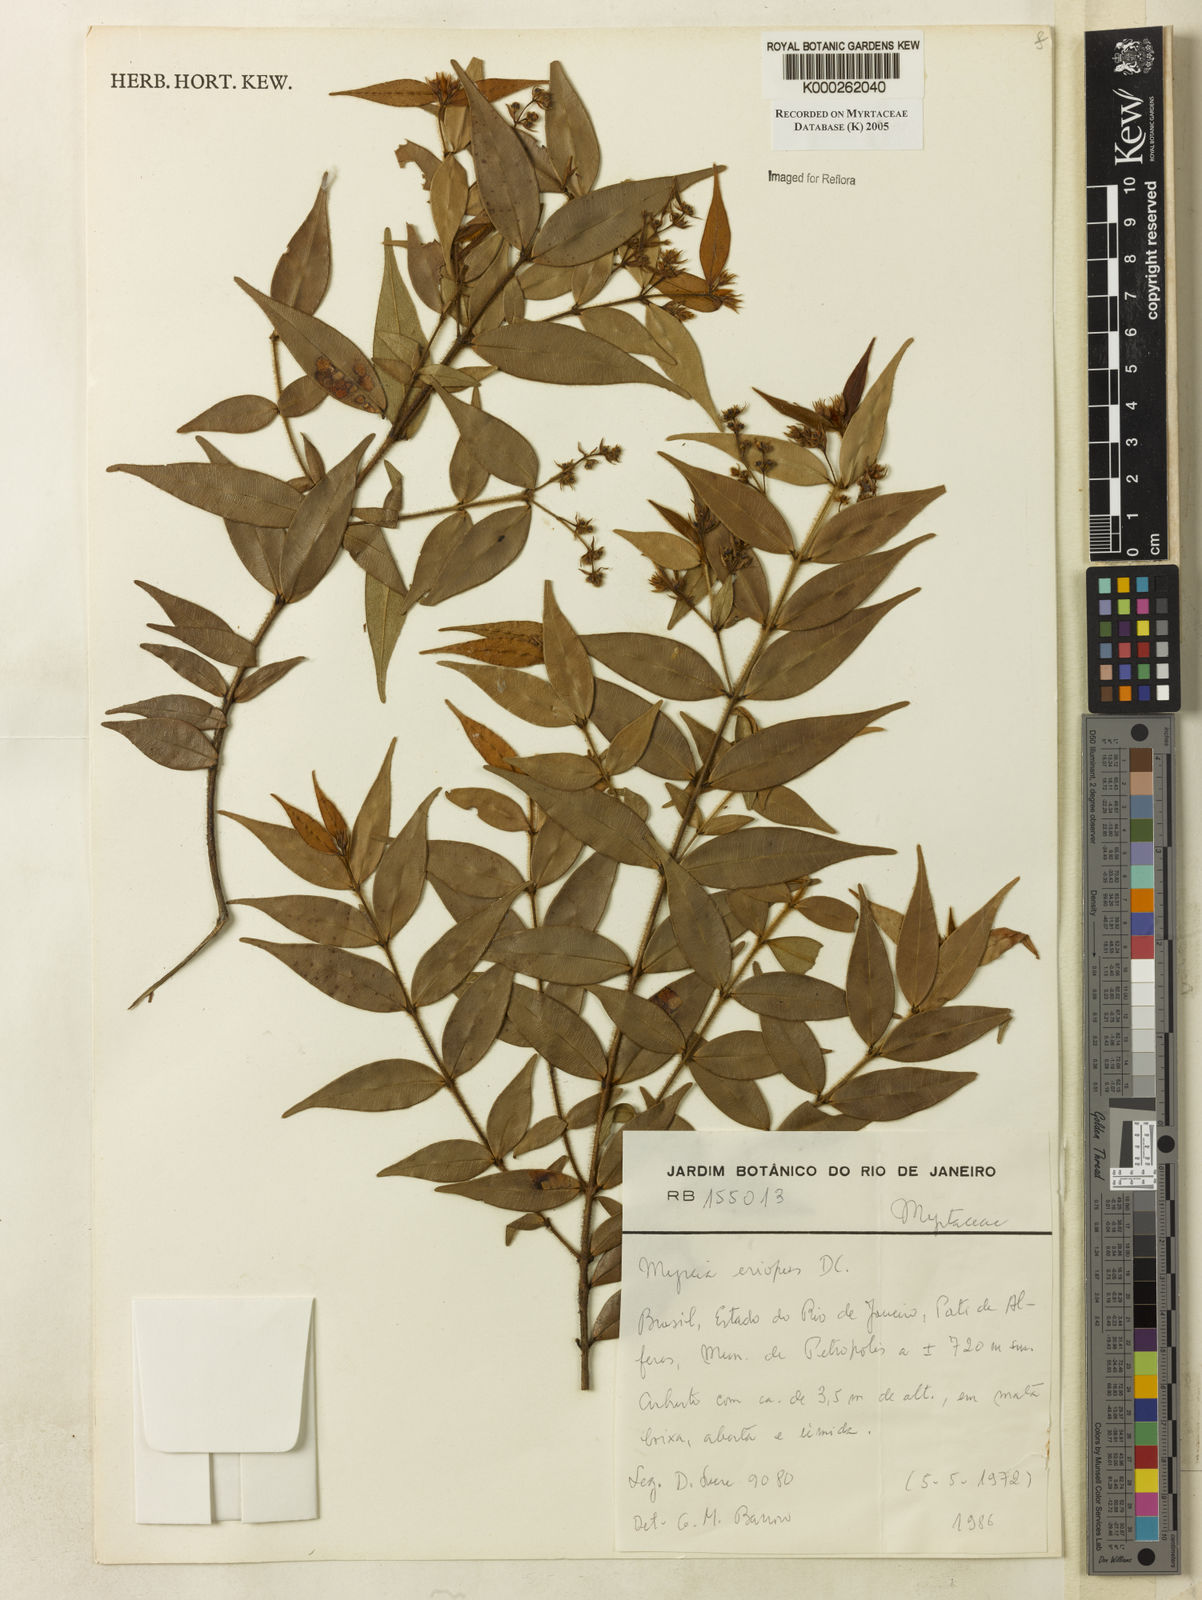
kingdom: Plantae
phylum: Tracheophyta
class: Magnoliopsida
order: Myrtales
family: Myrtaceae
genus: Myrcia
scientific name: Myrcia eriopus
